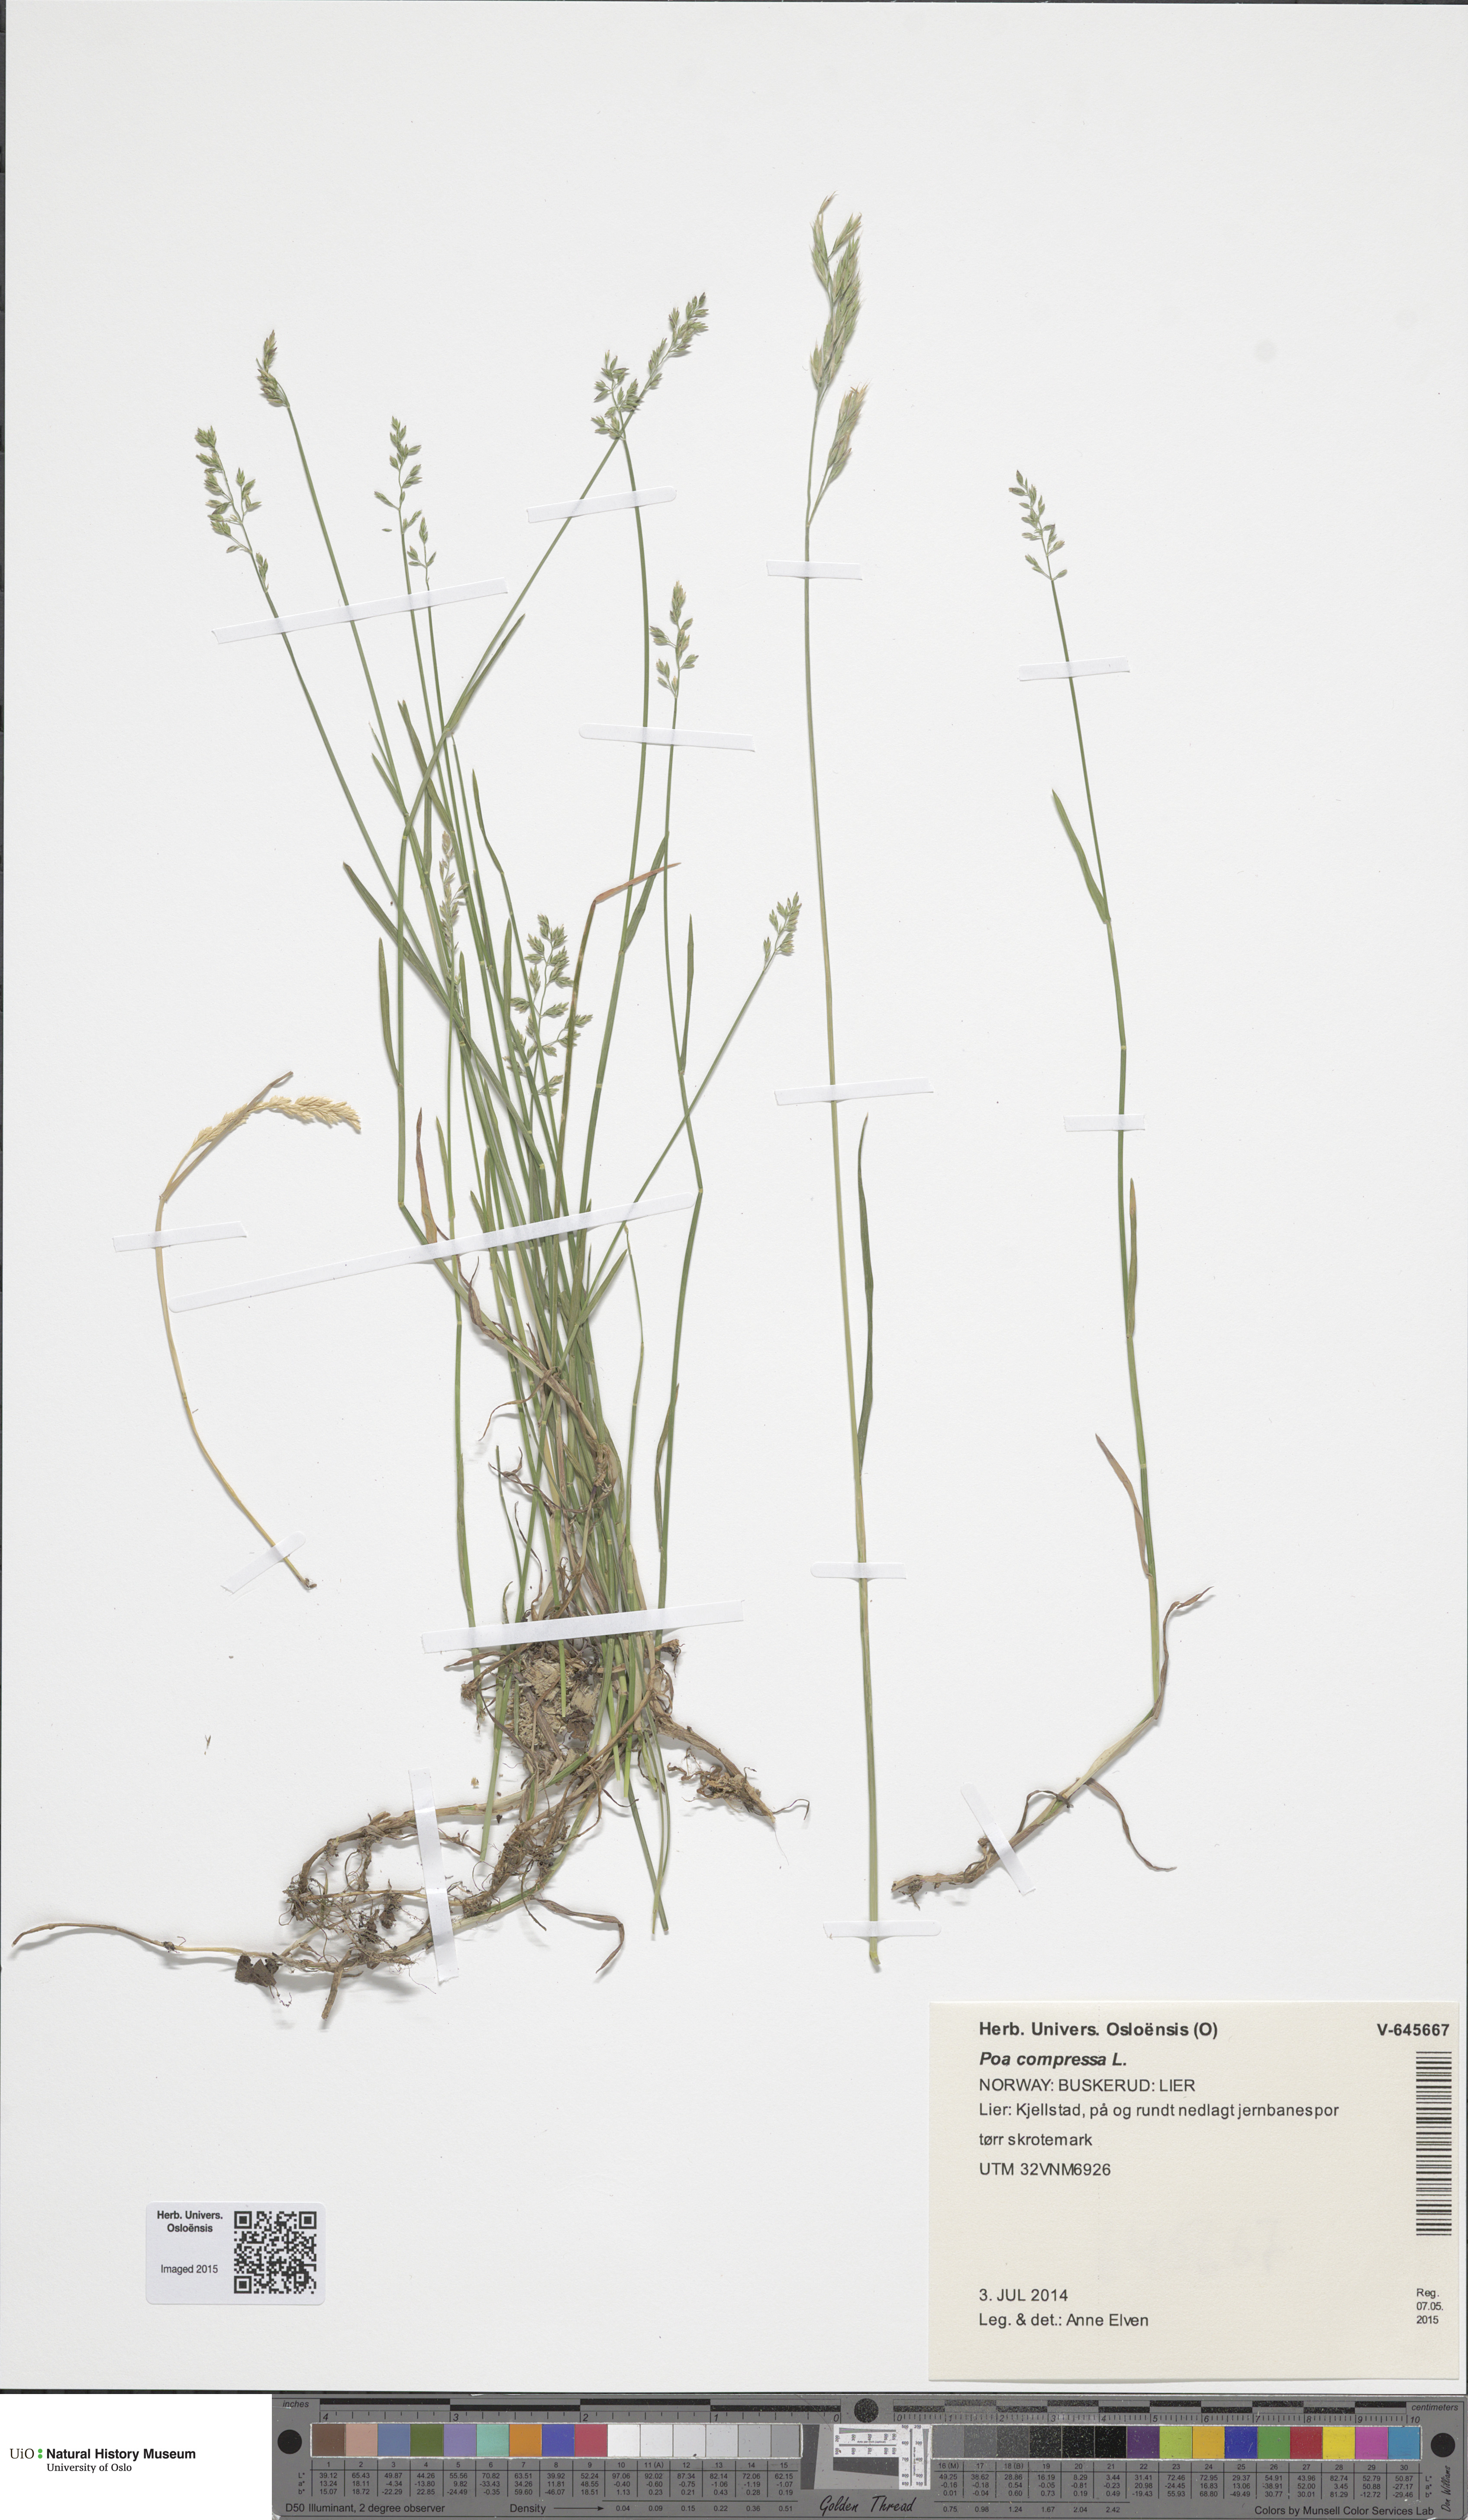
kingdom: Plantae
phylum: Tracheophyta
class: Liliopsida
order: Poales
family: Poaceae
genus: Poa
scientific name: Poa compressa
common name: Canada bluegrass
